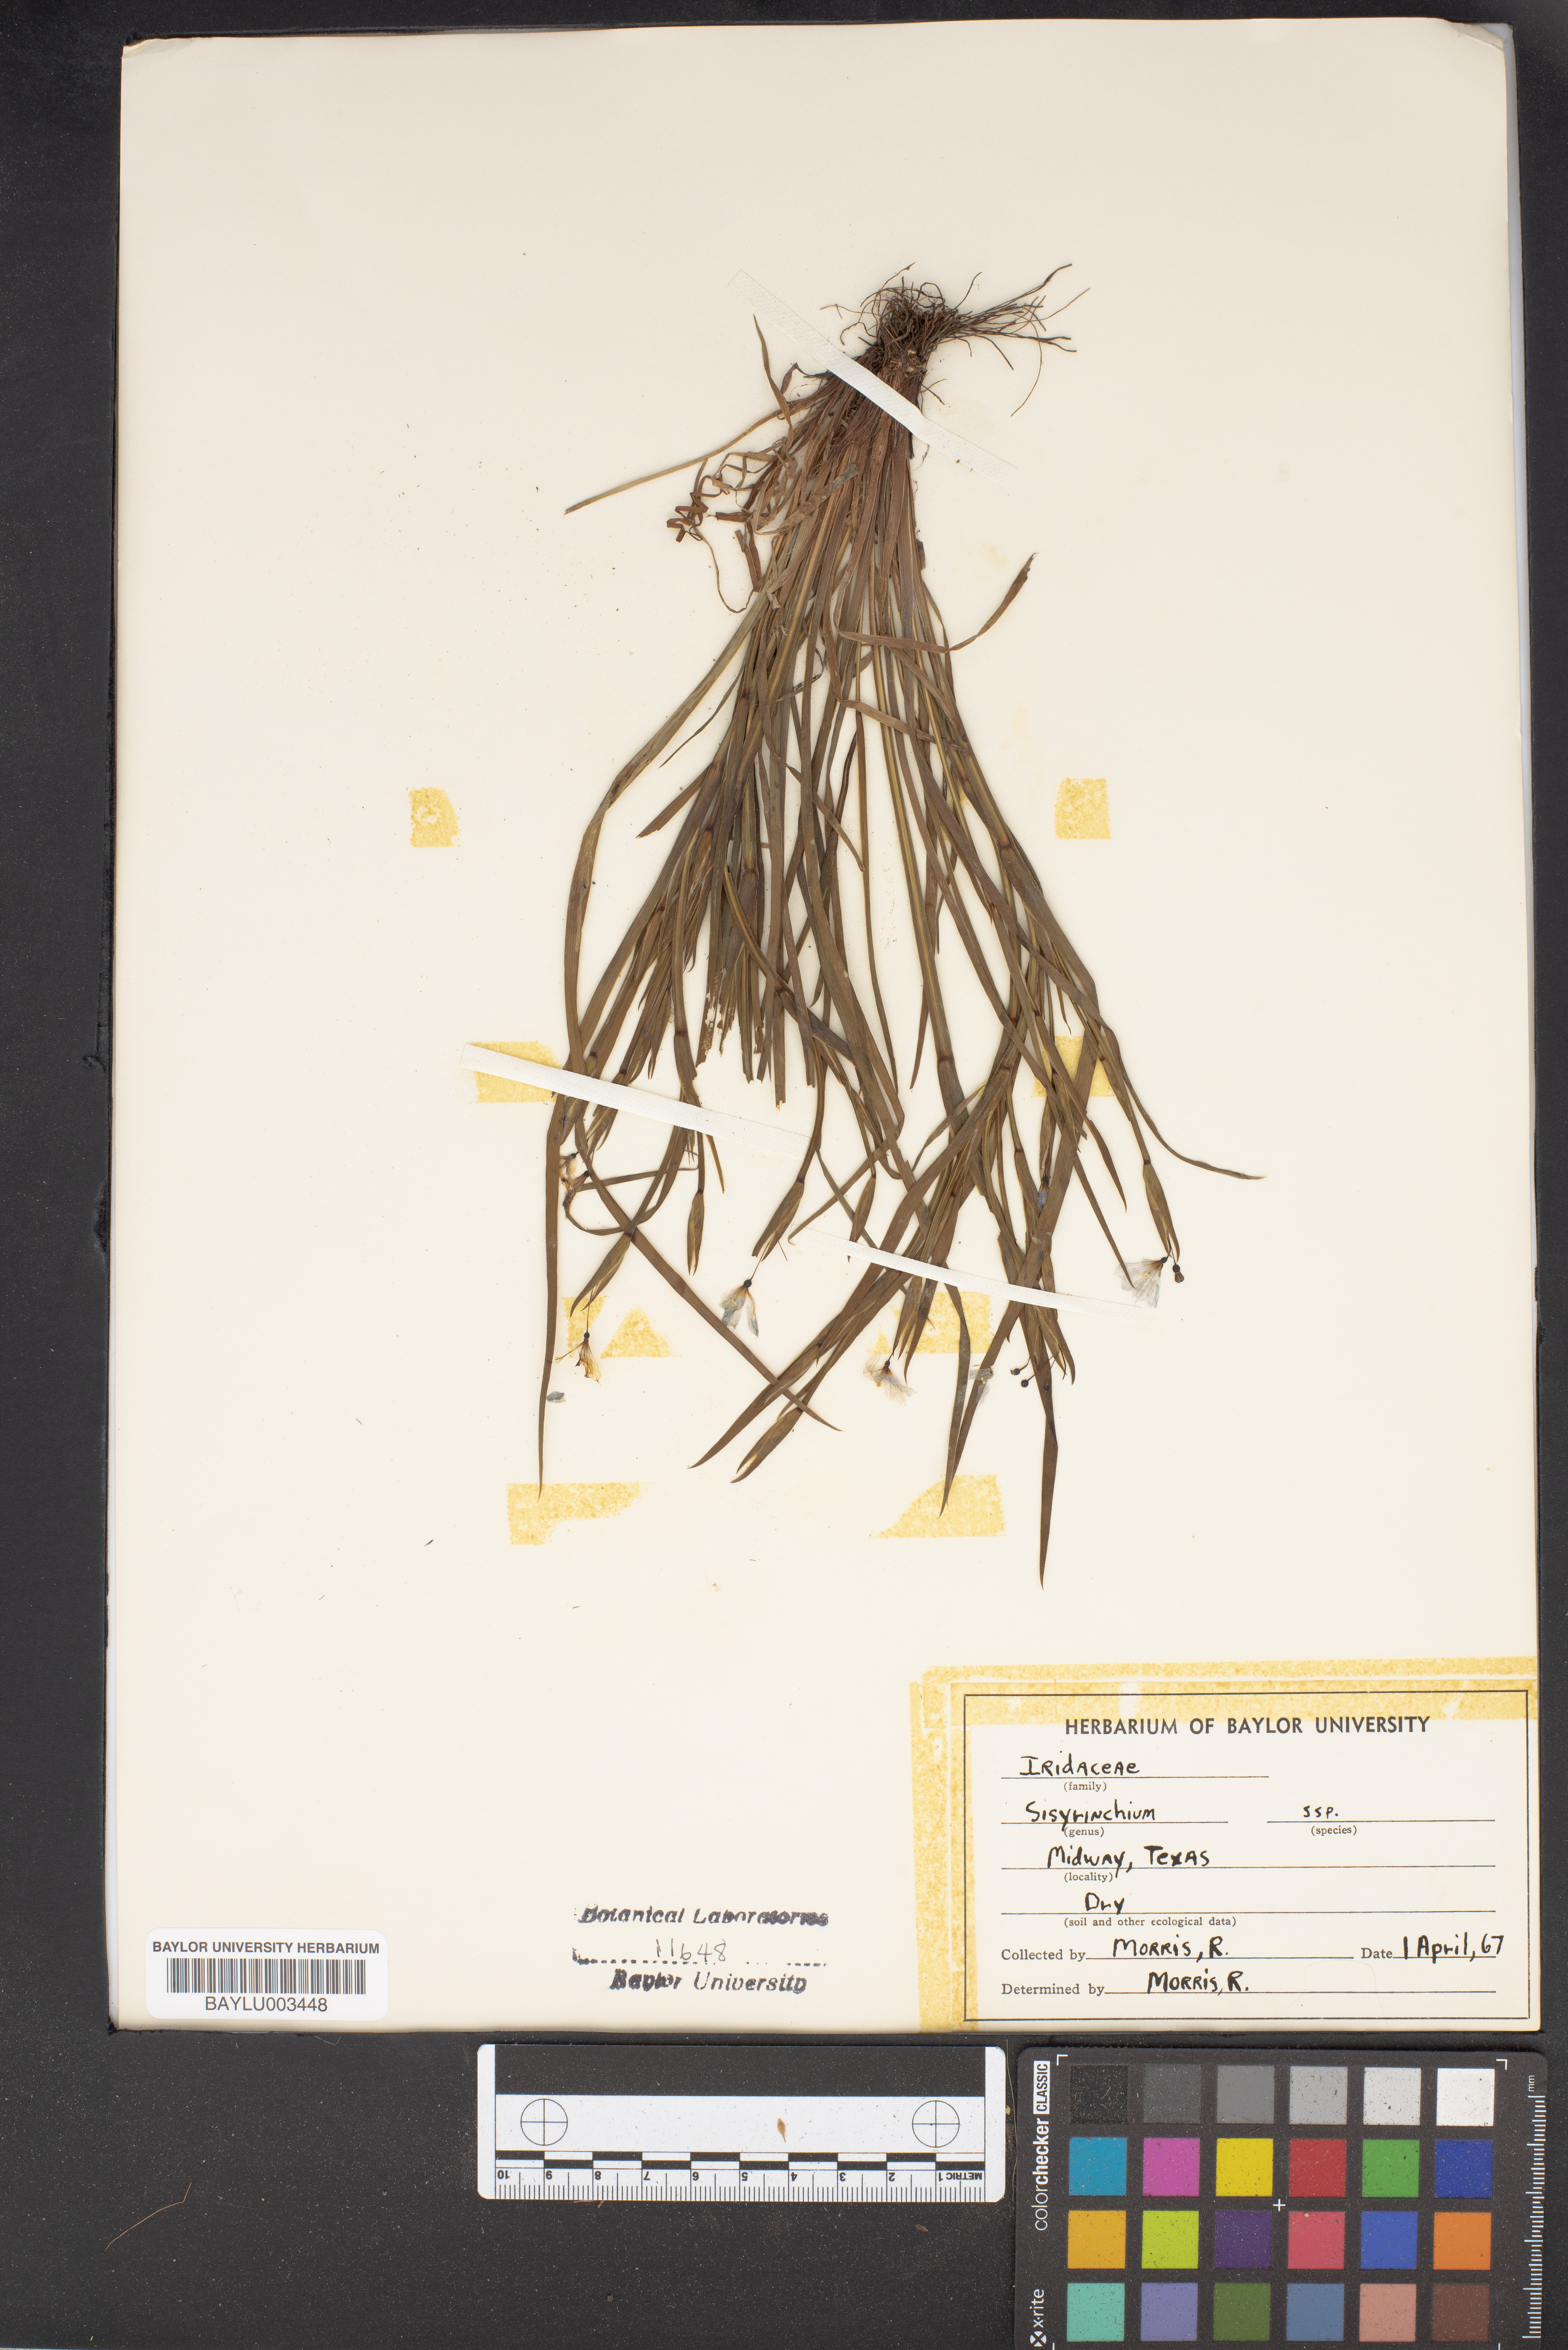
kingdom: Plantae
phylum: Tracheophyta
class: Liliopsida
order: Asparagales
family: Iridaceae
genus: Sisyrinchium
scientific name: Sisyrinchium
